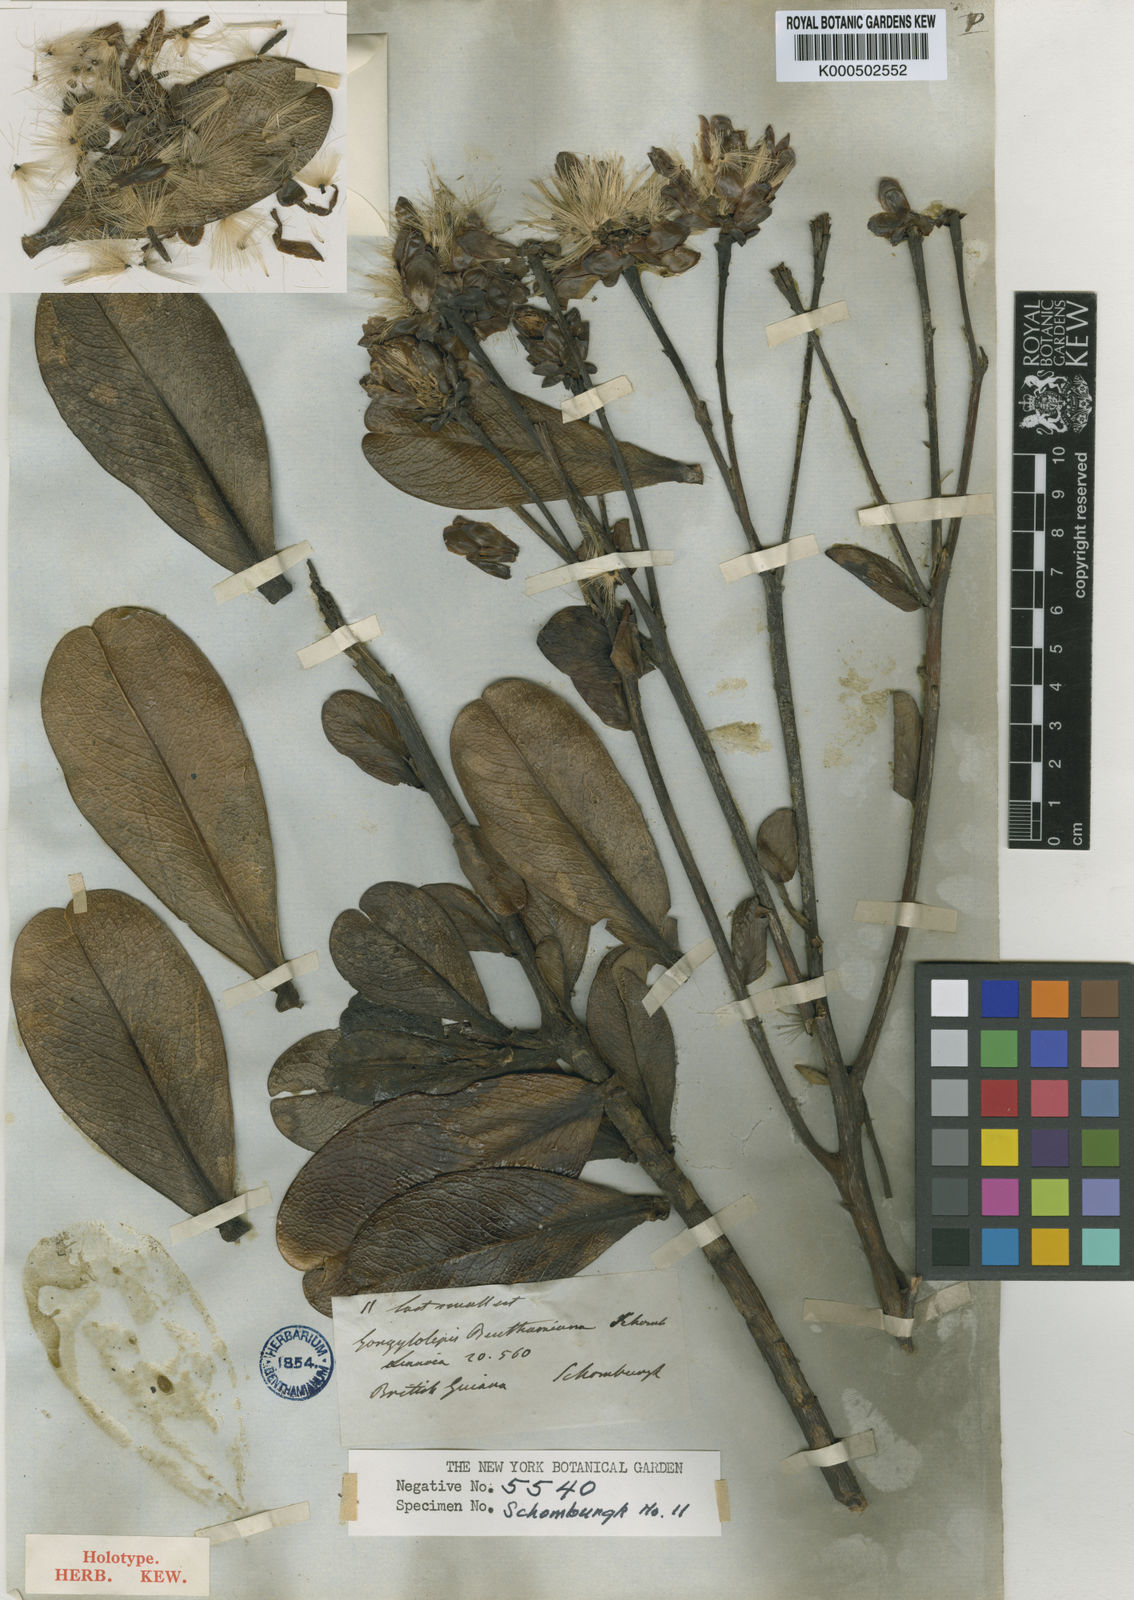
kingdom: Plantae
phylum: Tracheophyta
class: Magnoliopsida
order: Asterales
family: Asteraceae
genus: Gongylolepis
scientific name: Gongylolepis benthamiana
